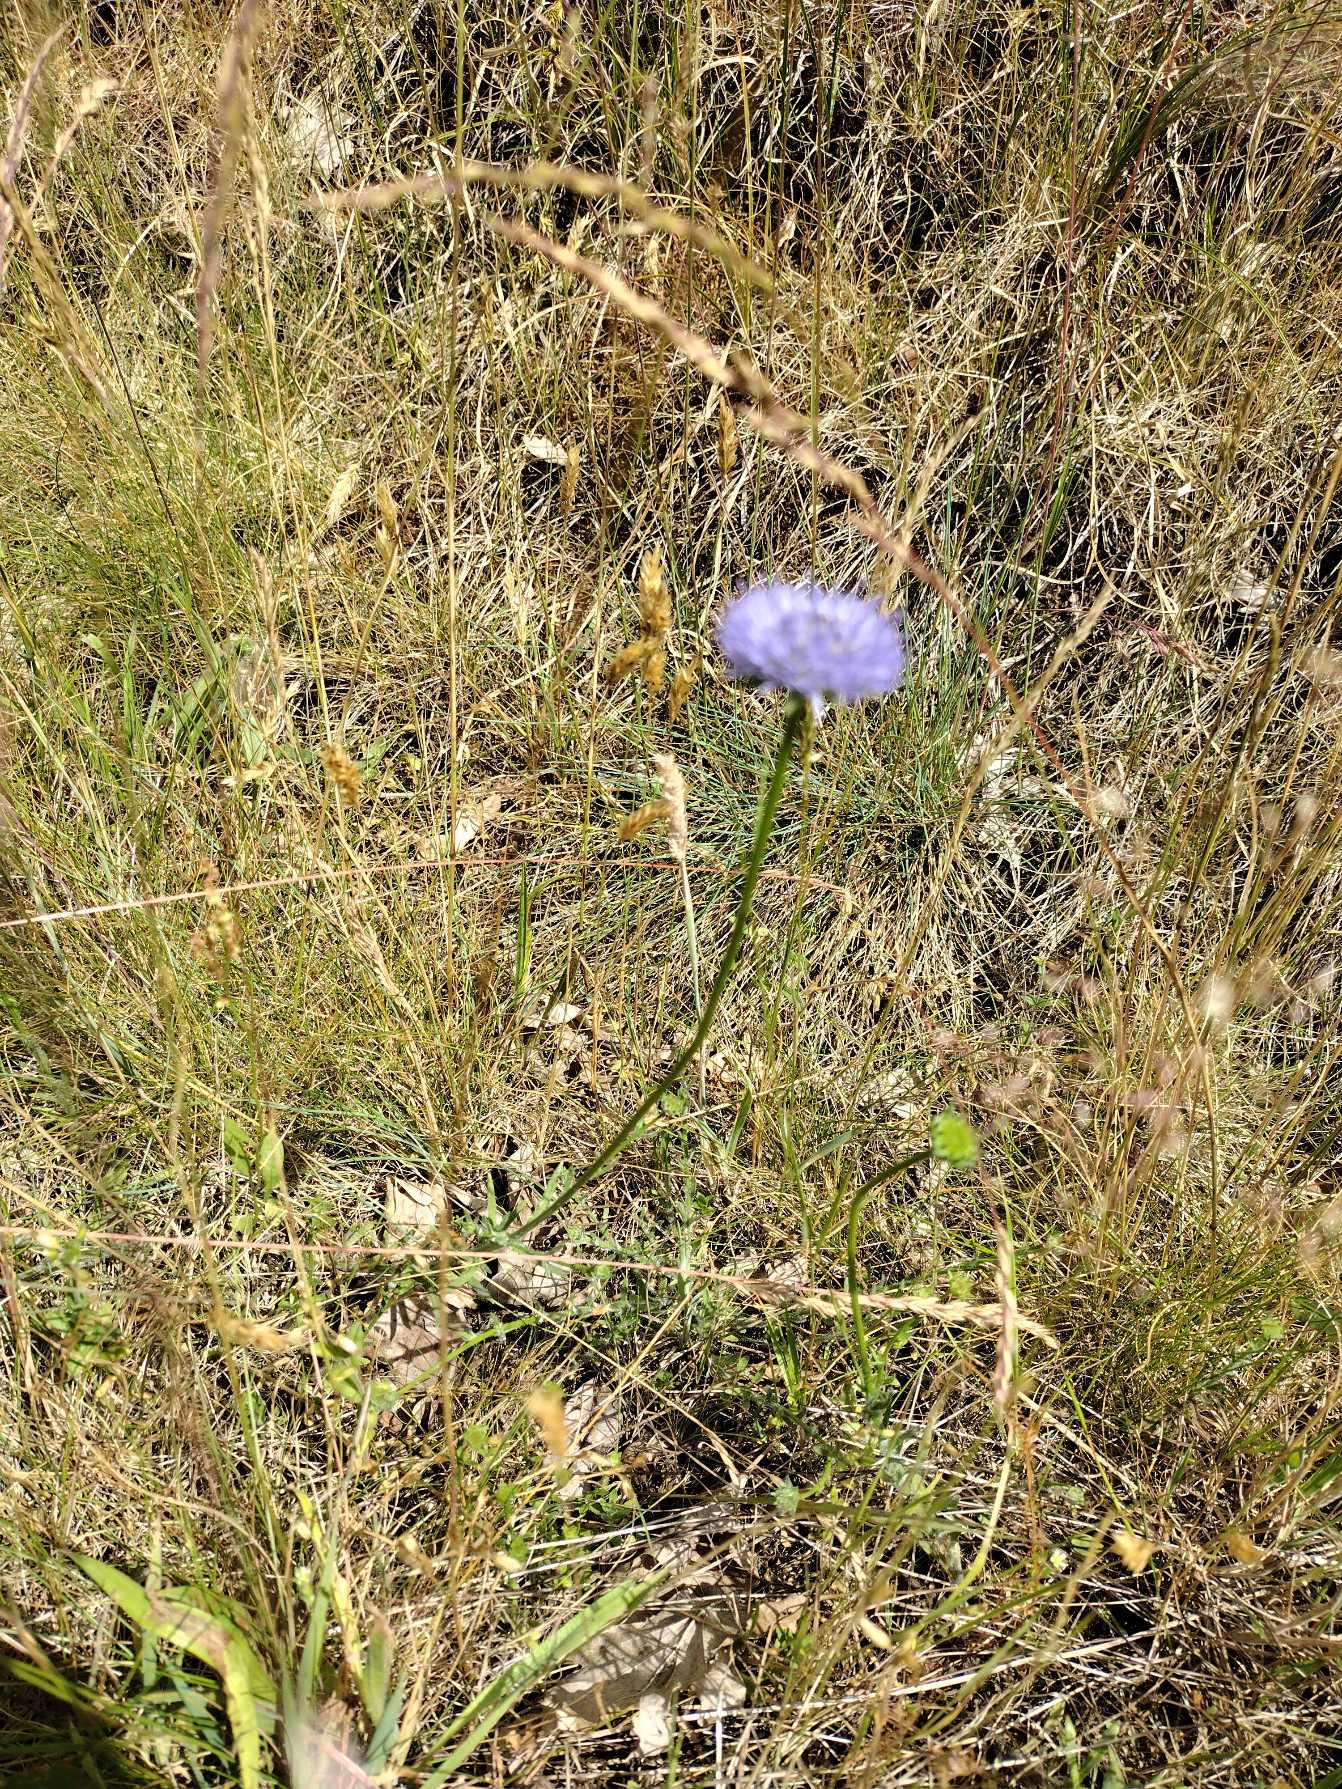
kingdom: Plantae
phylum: Tracheophyta
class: Magnoliopsida
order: Asterales
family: Campanulaceae
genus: Jasione
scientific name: Jasione montana
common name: Blåmunke
